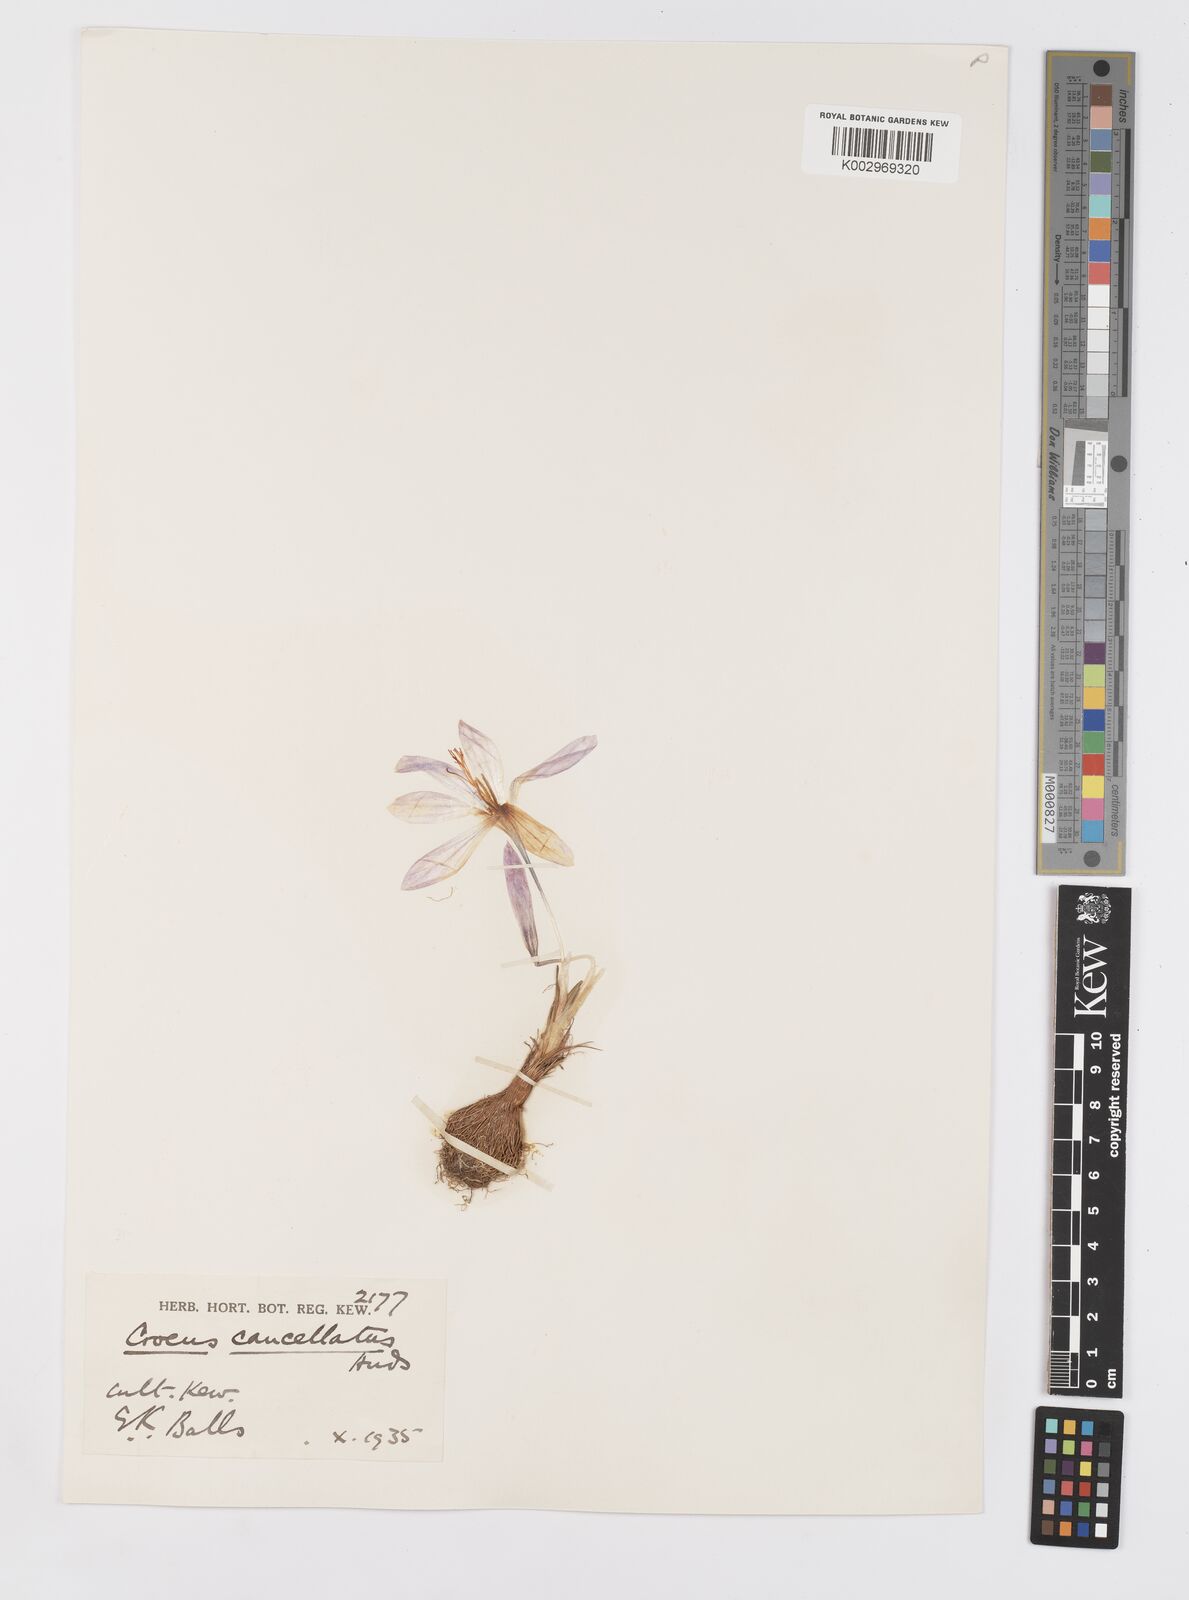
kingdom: Plantae
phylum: Tracheophyta
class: Liliopsida
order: Asparagales
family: Iridaceae
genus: Crocus
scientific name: Crocus cancellatus
